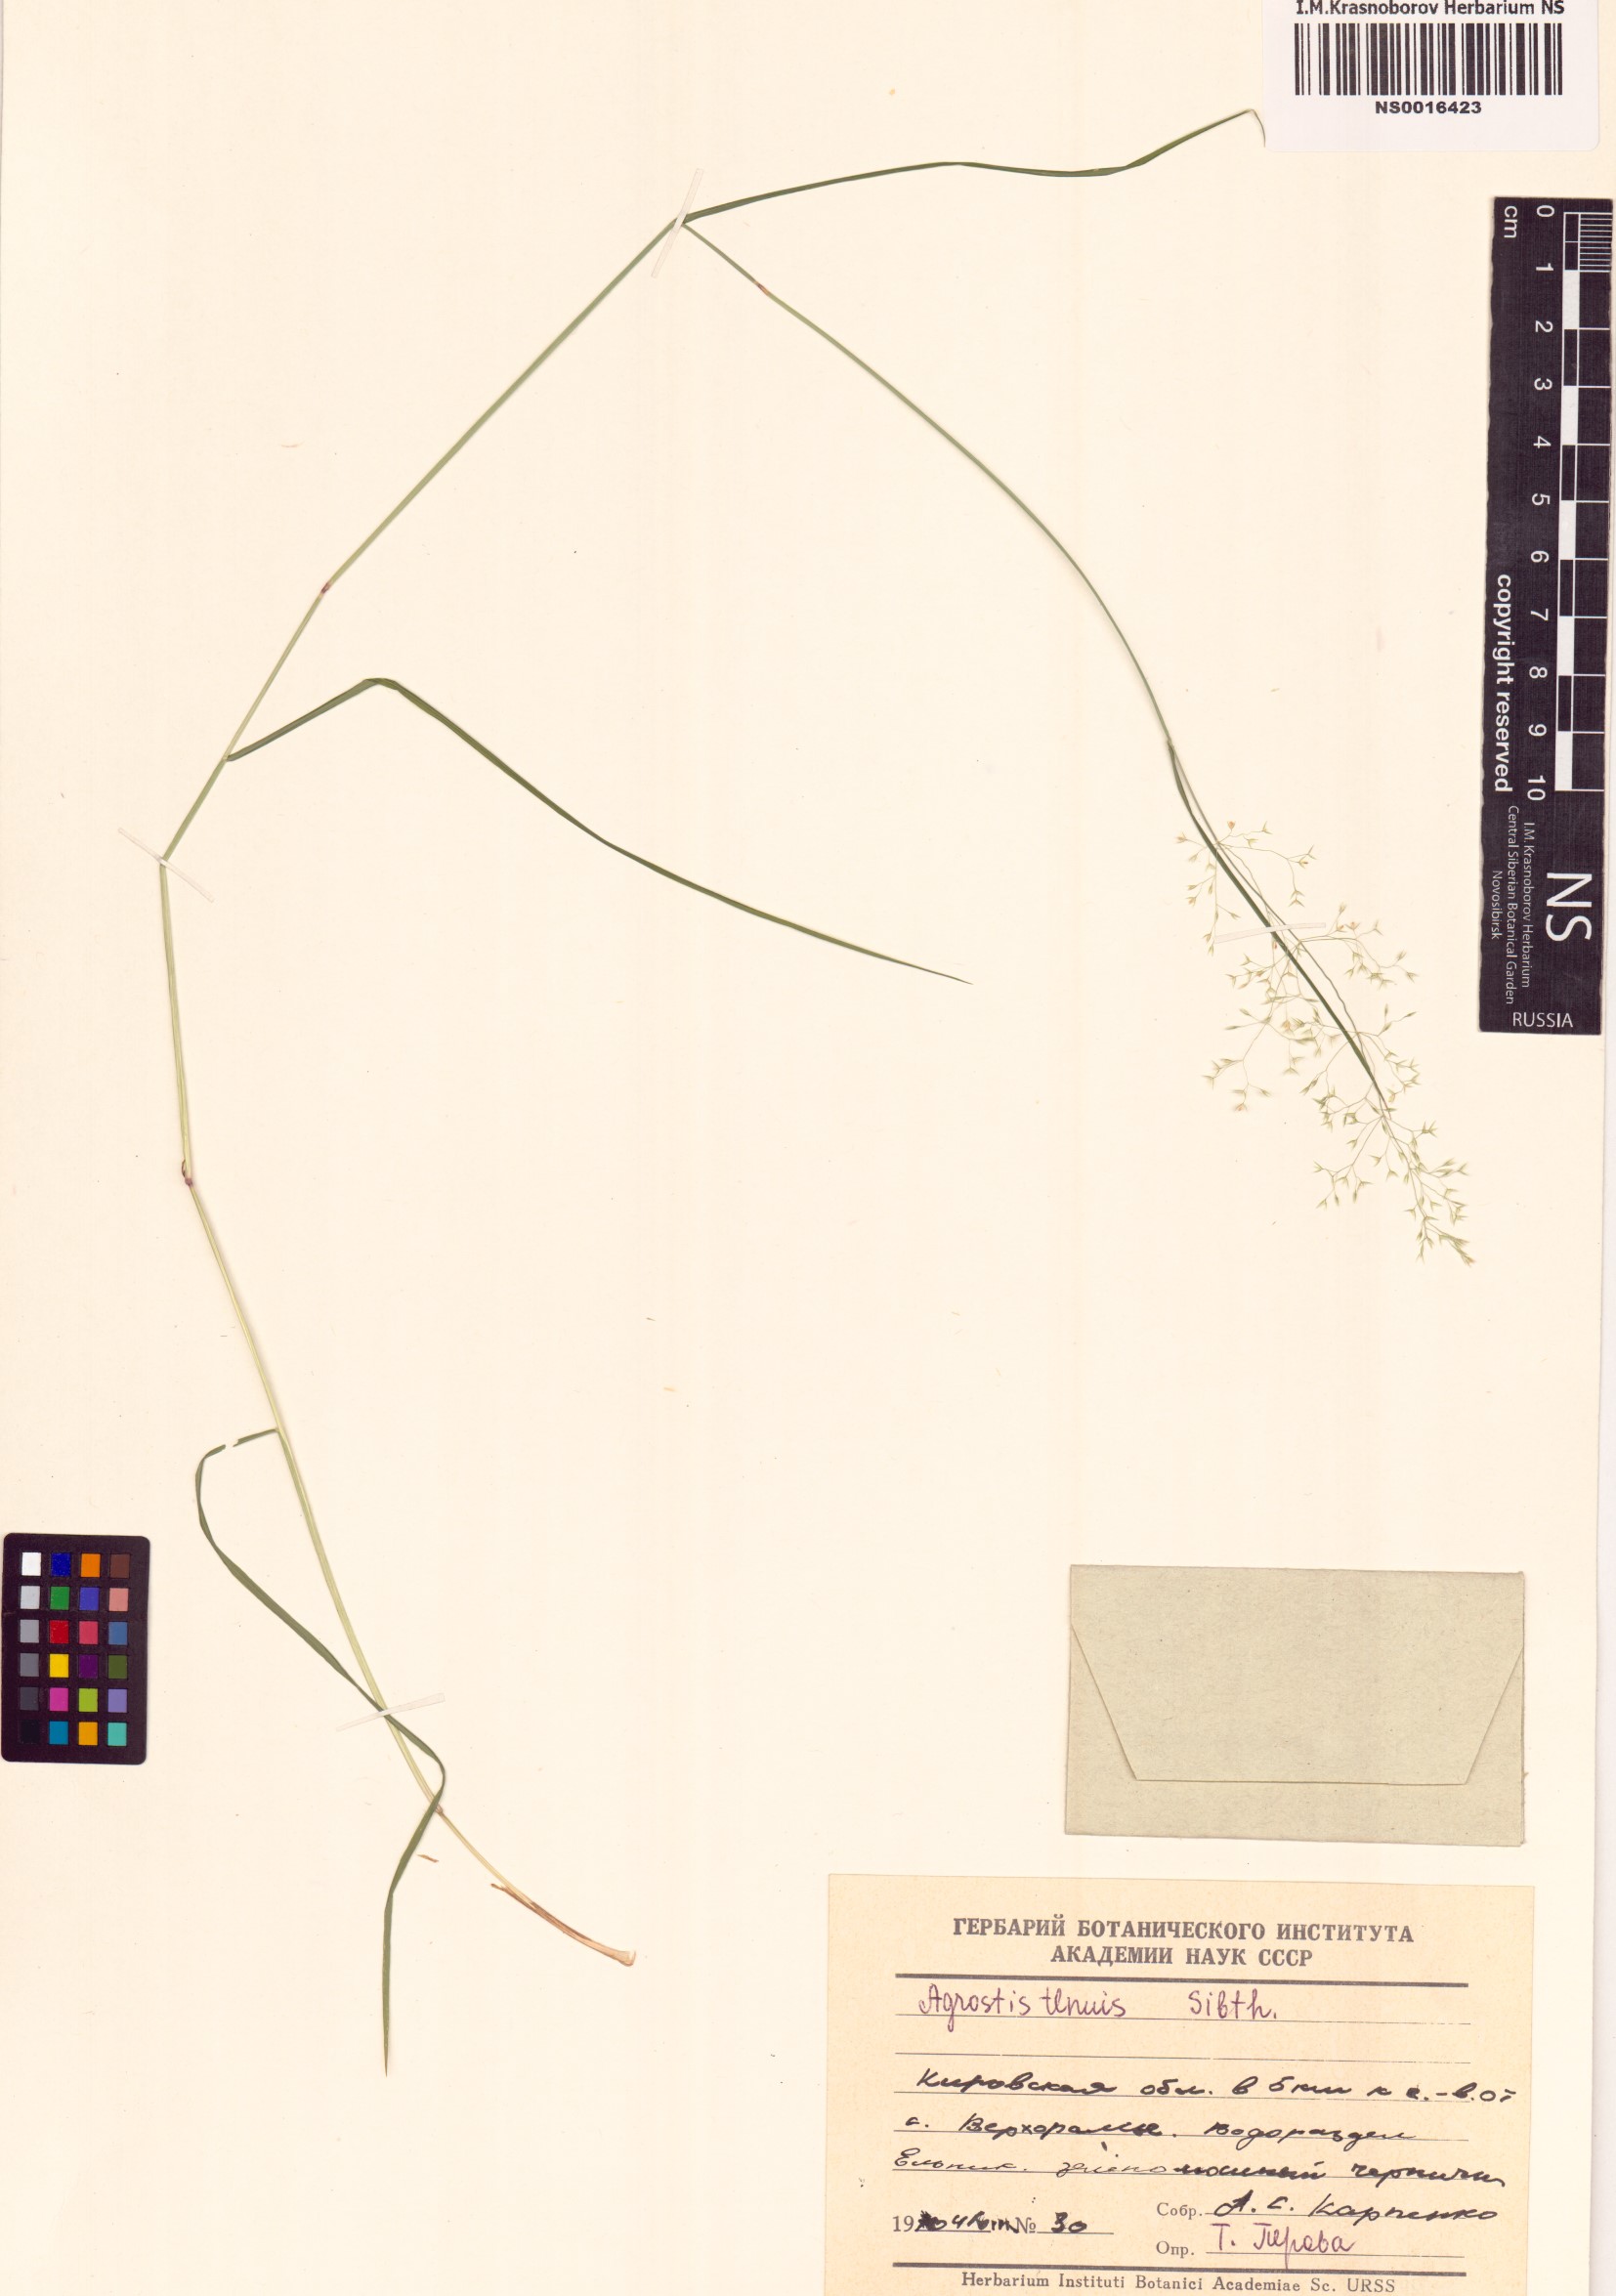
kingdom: Plantae
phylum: Tracheophyta
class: Liliopsida
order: Poales
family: Poaceae
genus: Agrostis
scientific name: Agrostis capillaris
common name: Colonial bentgrass
